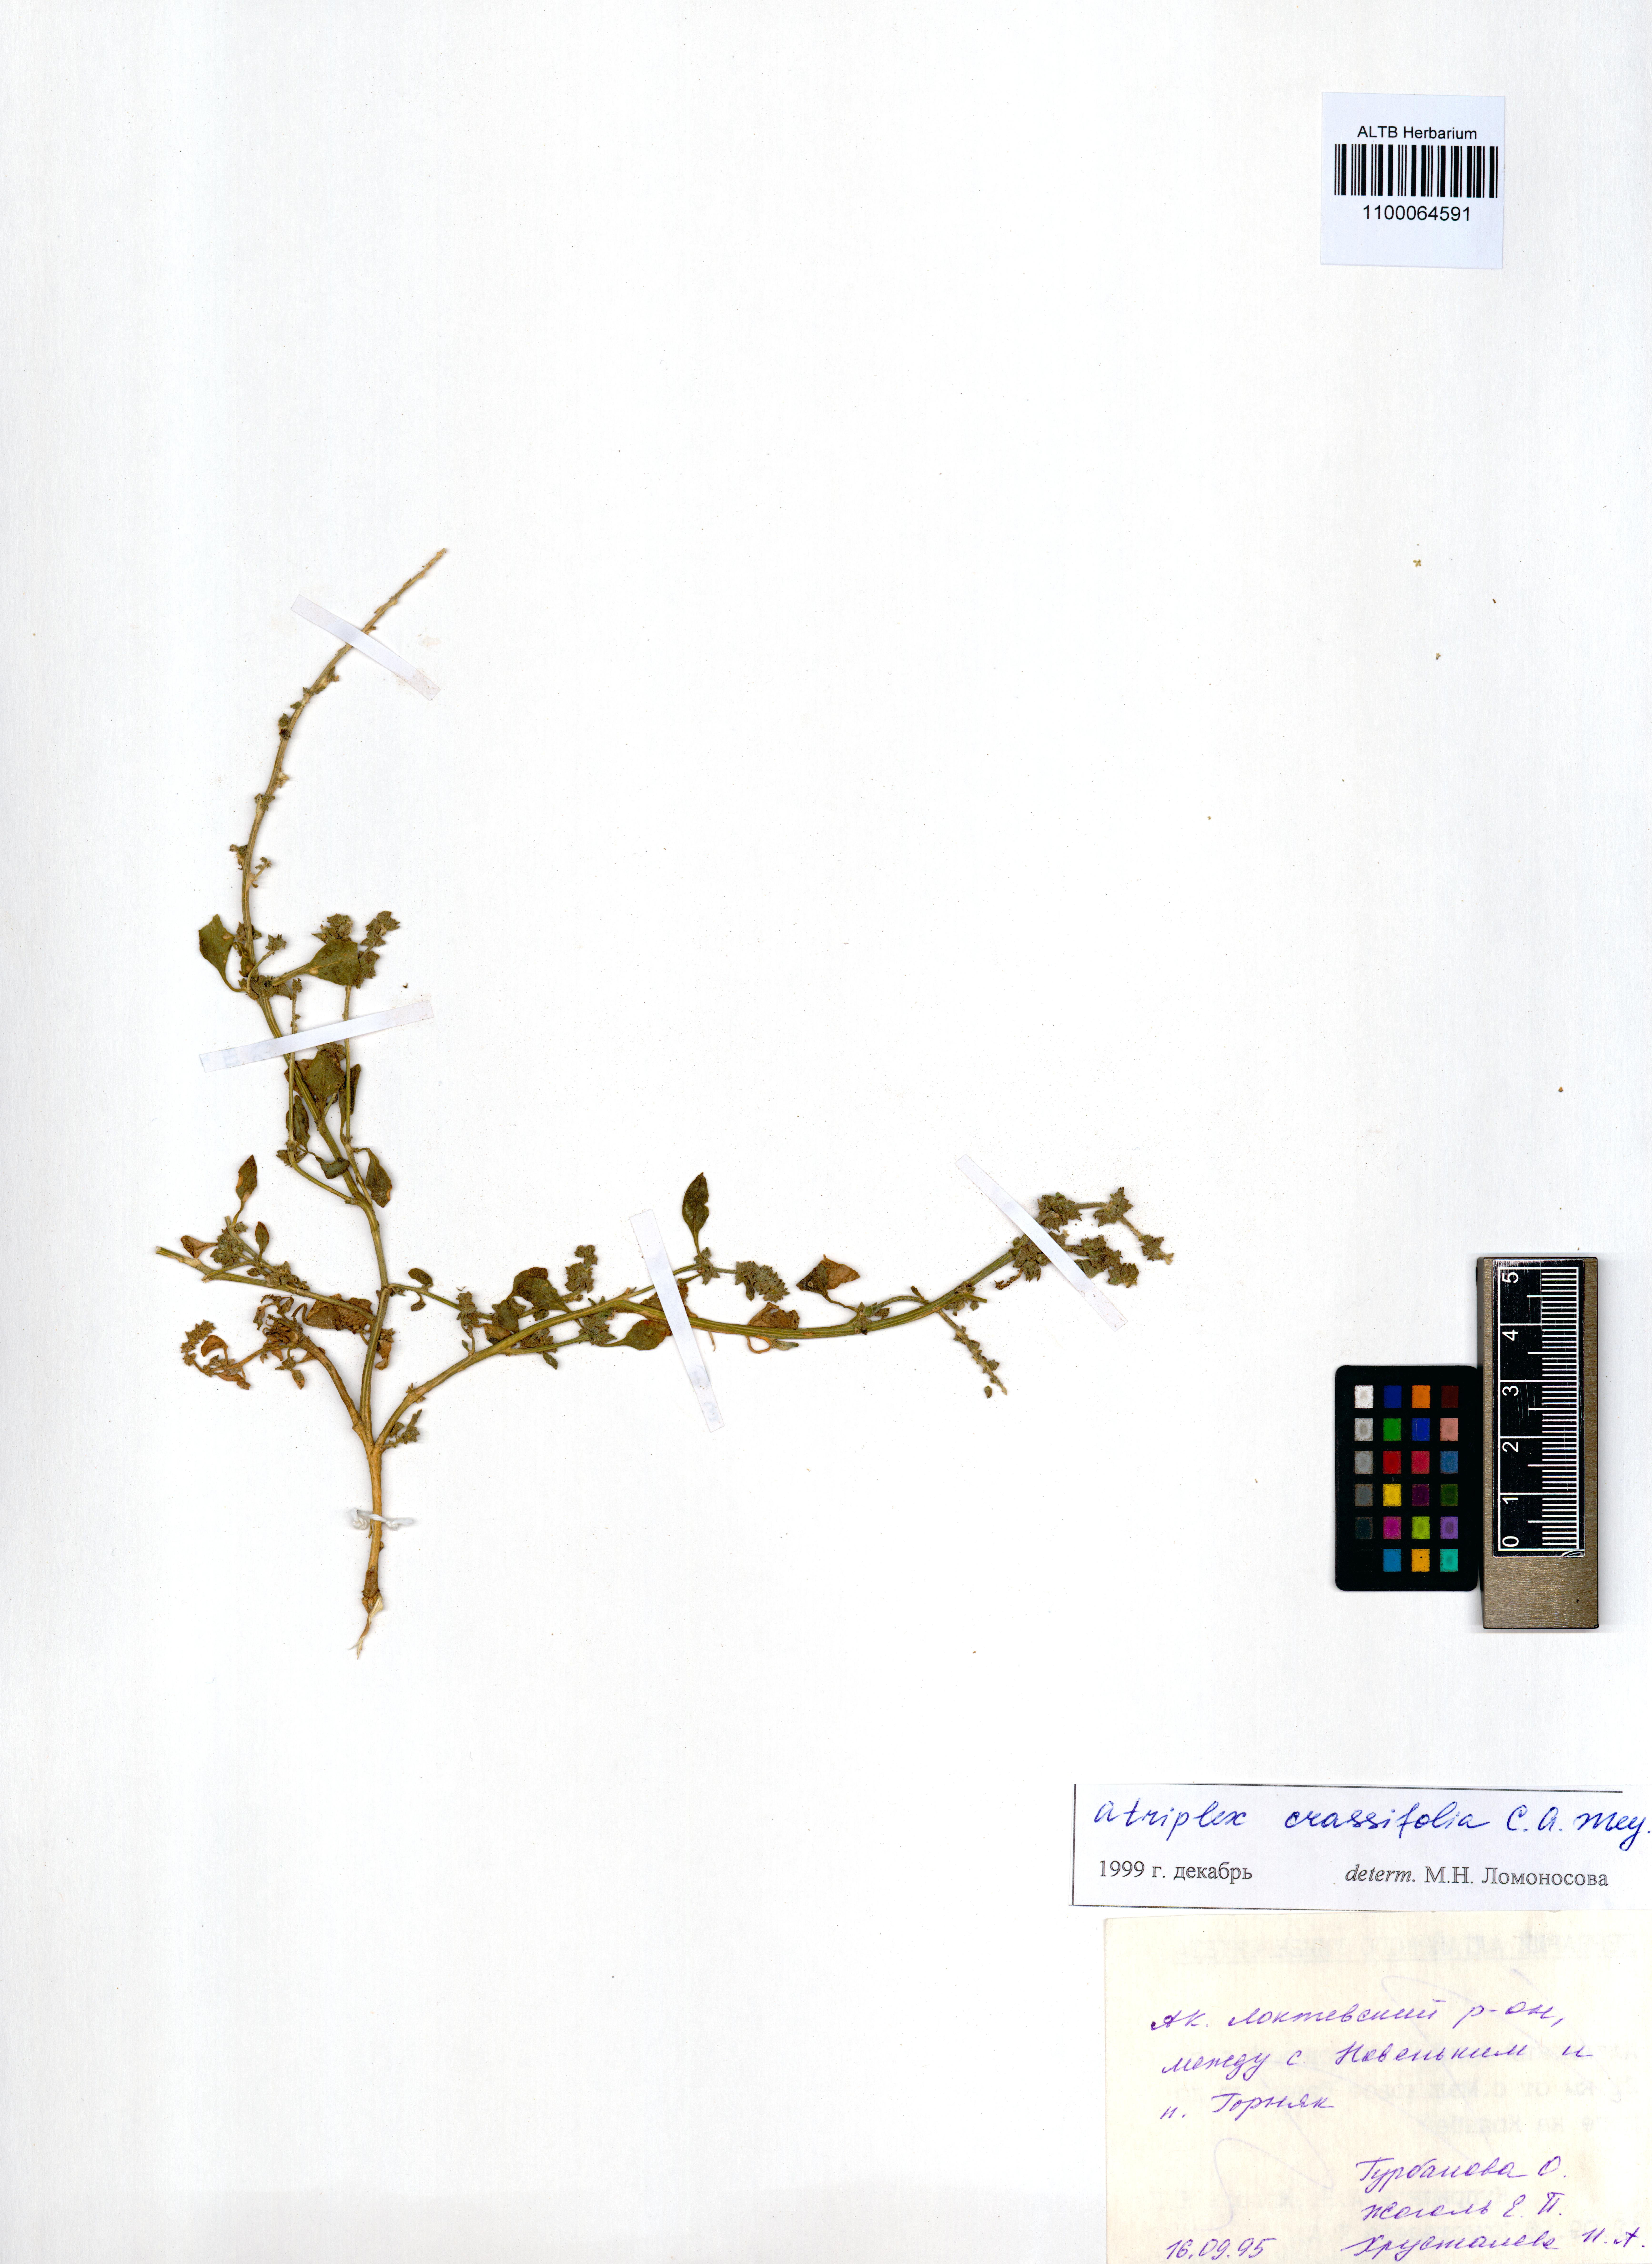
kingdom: Plantae
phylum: Tracheophyta
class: Magnoliopsida
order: Caryophyllales
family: Amaranthaceae
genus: Atriplex
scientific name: Atriplex crassifolia
